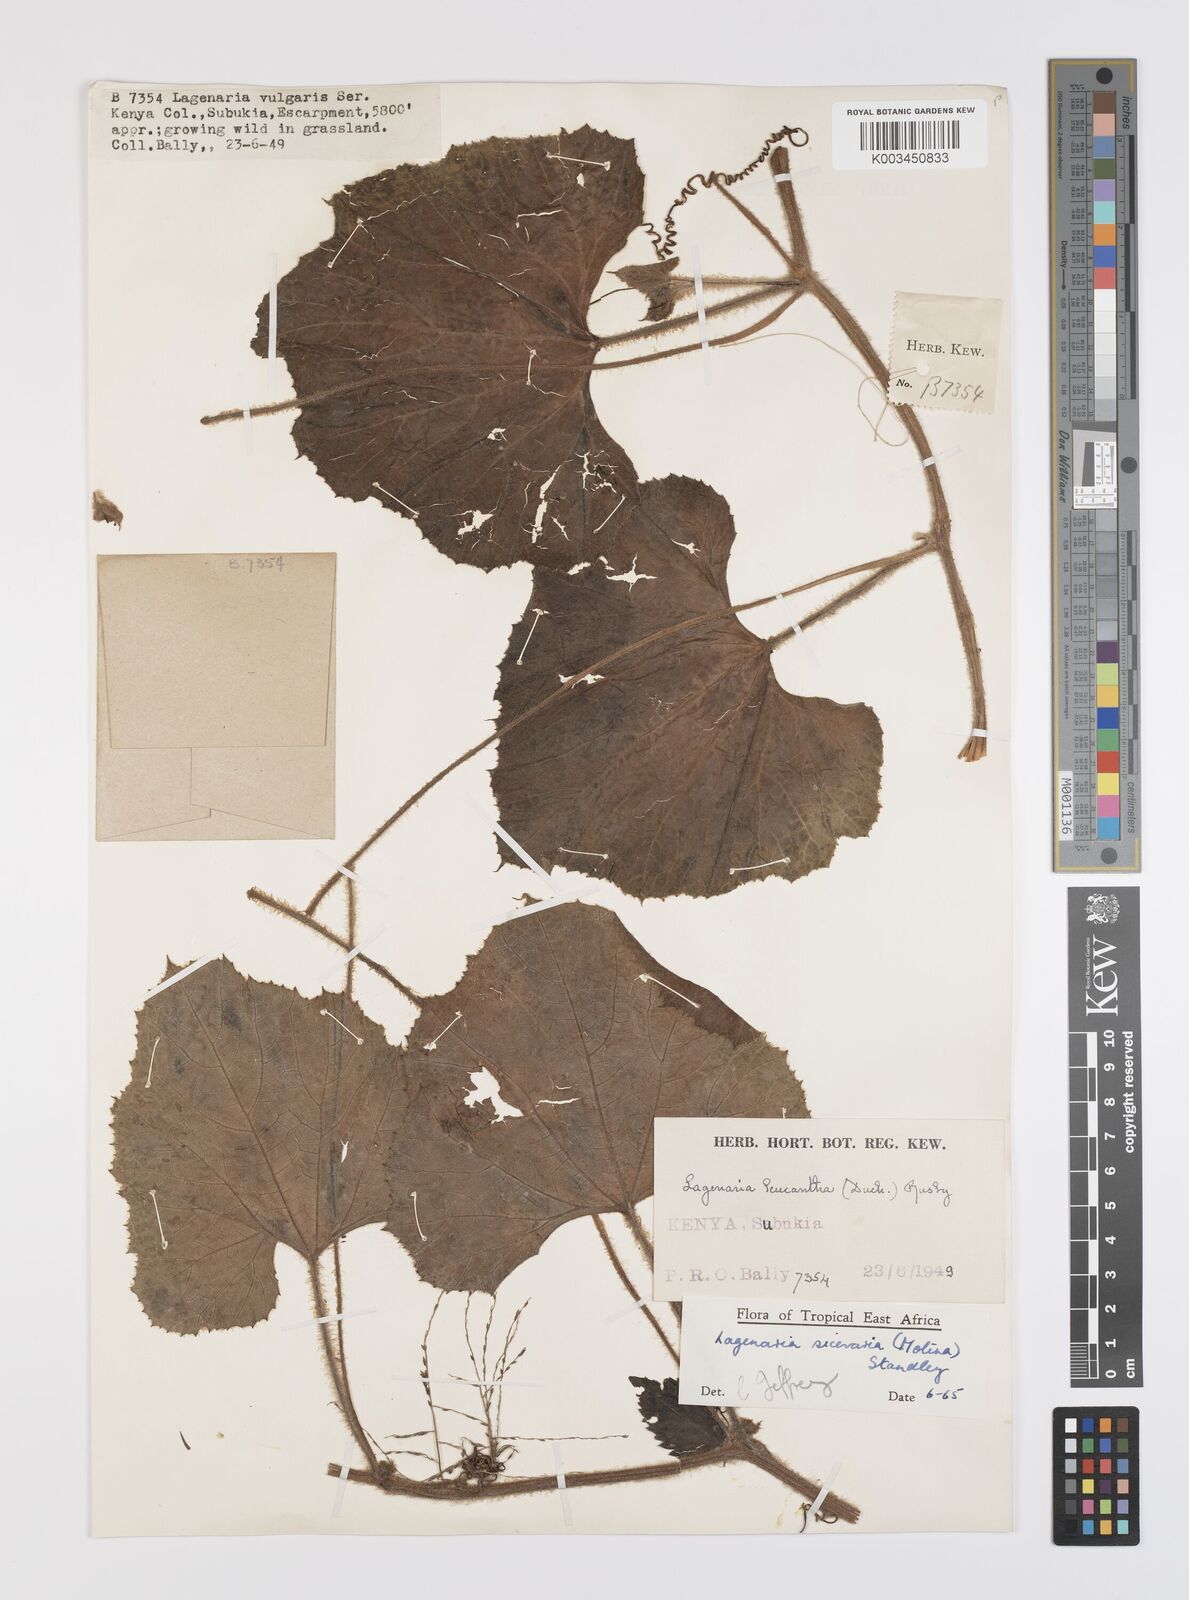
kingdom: Plantae
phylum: Tracheophyta
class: Magnoliopsida
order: Cucurbitales
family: Cucurbitaceae
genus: Lagenaria
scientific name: Lagenaria siceraria
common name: Bottle gourd
